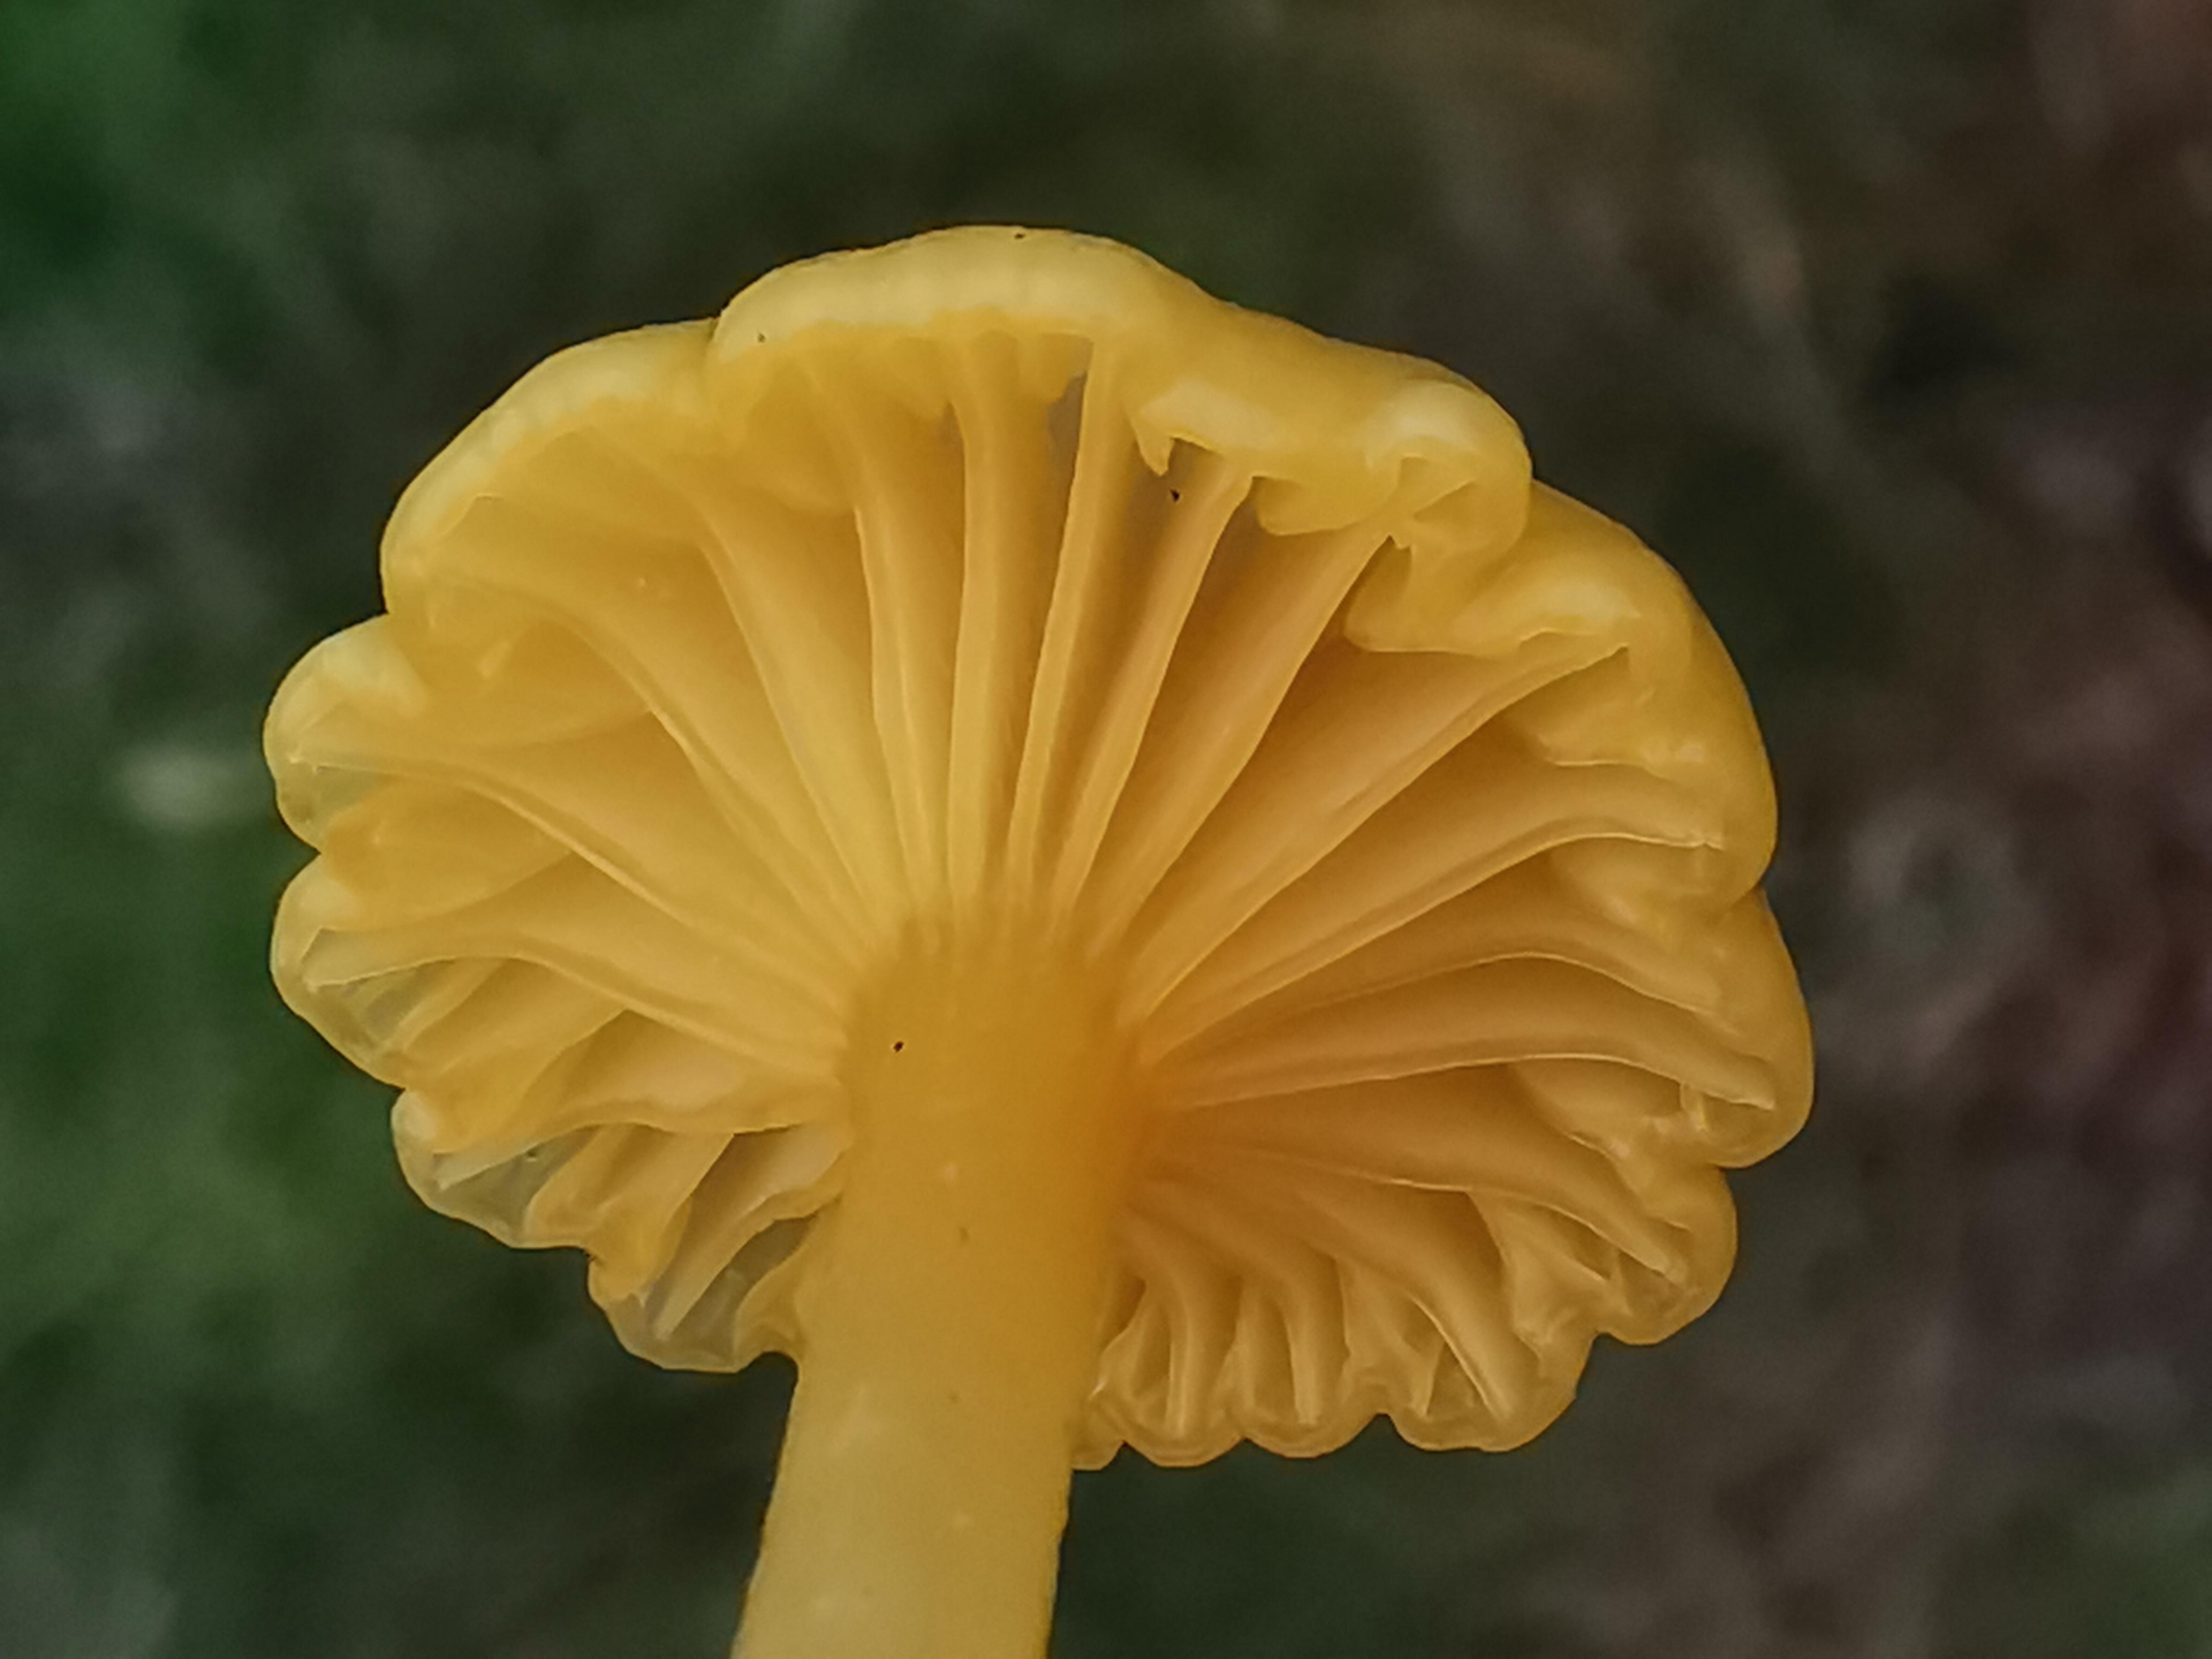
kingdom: Fungi
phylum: Basidiomycota
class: Agaricomycetes
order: Agaricales
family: Hygrophoraceae
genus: Gloioxanthomyces
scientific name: Gloioxanthomyces vitellinus
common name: kromgul vokshat
